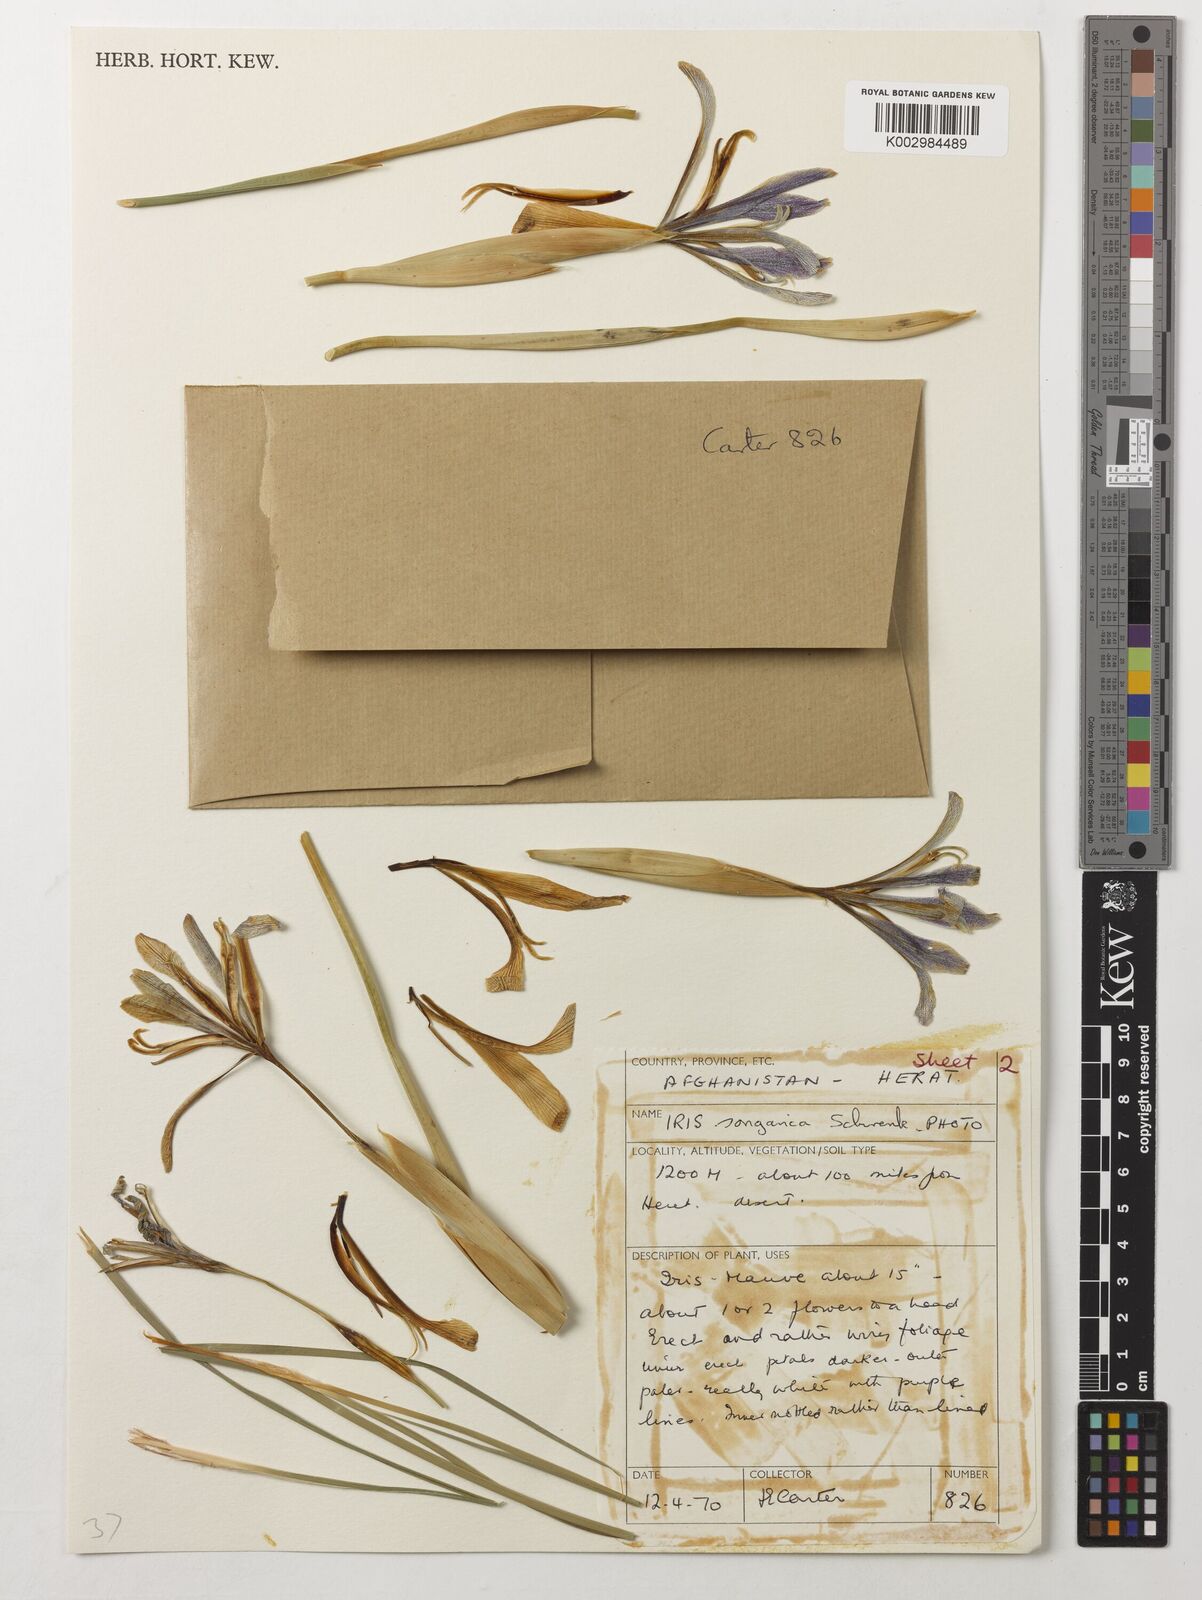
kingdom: Plantae
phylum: Tracheophyta
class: Liliopsida
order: Asparagales
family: Iridaceae
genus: Iris
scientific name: Iris songarica
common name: Songar iris
